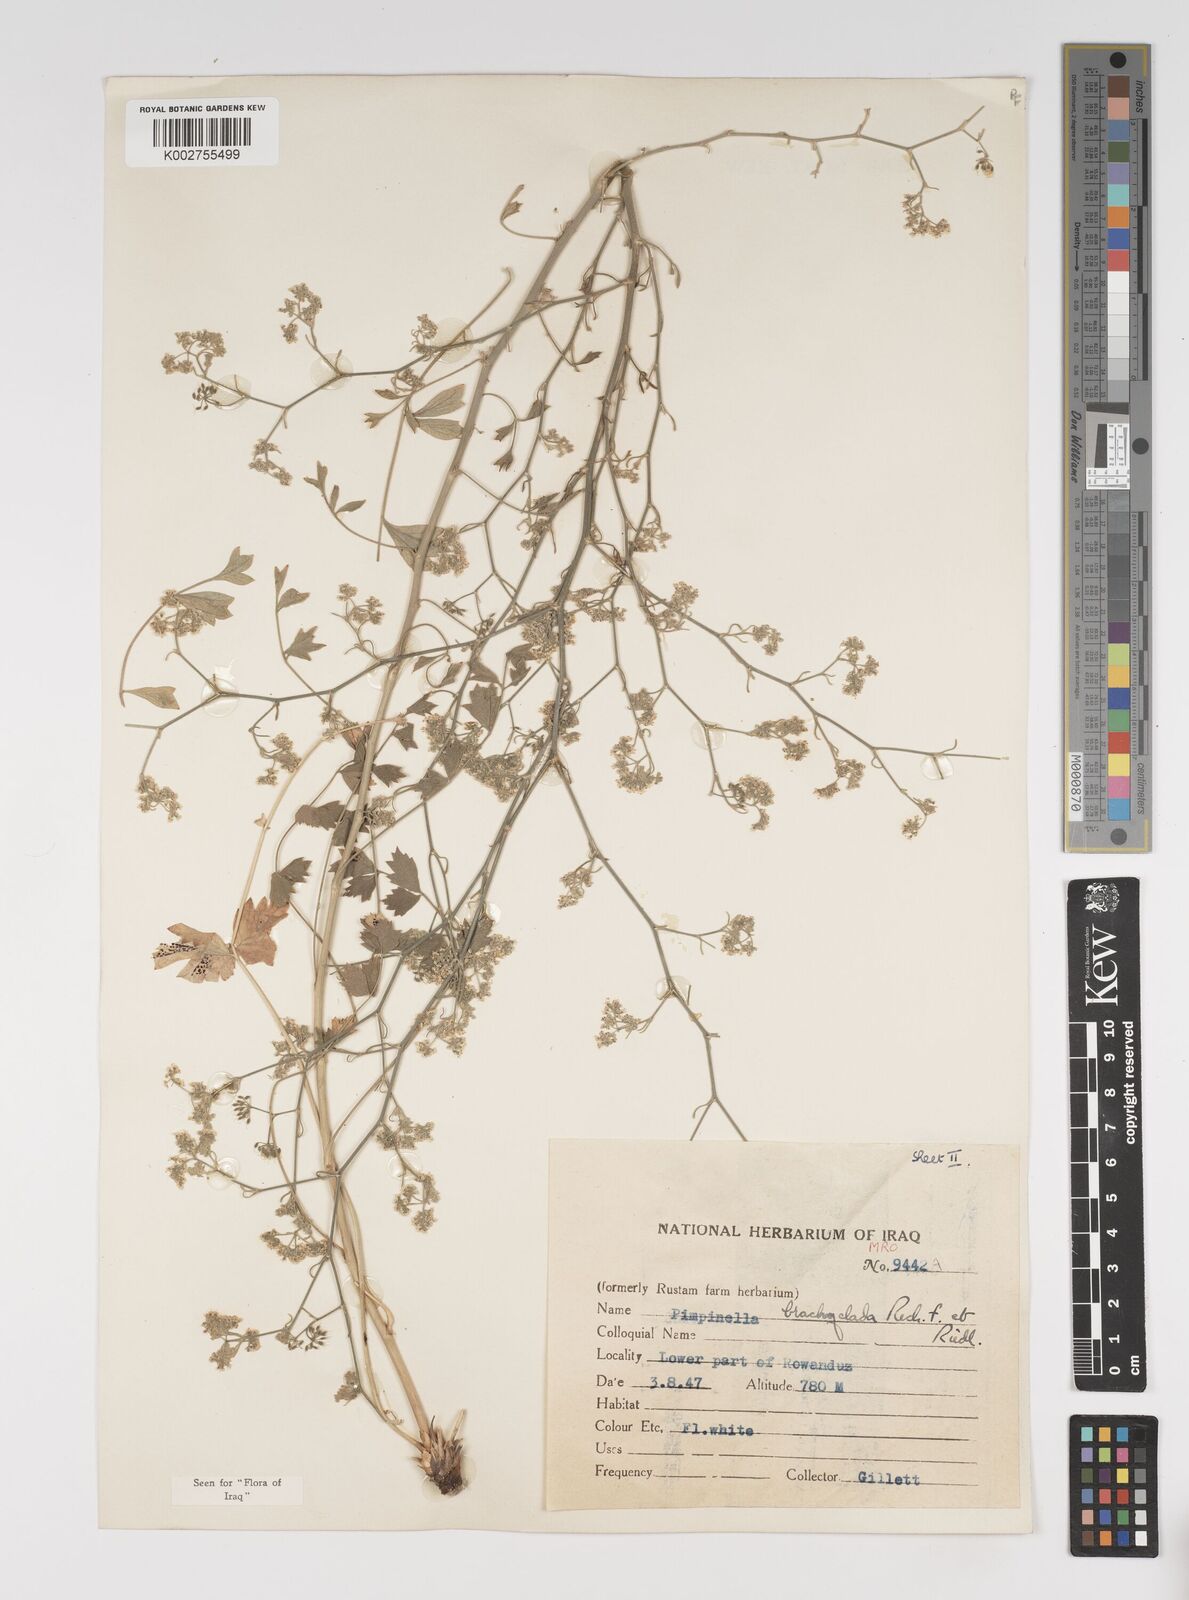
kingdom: Plantae
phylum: Tracheophyta
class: Magnoliopsida
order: Apiales
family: Apiaceae
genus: Pimpinella
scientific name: Pimpinella brachyclada
